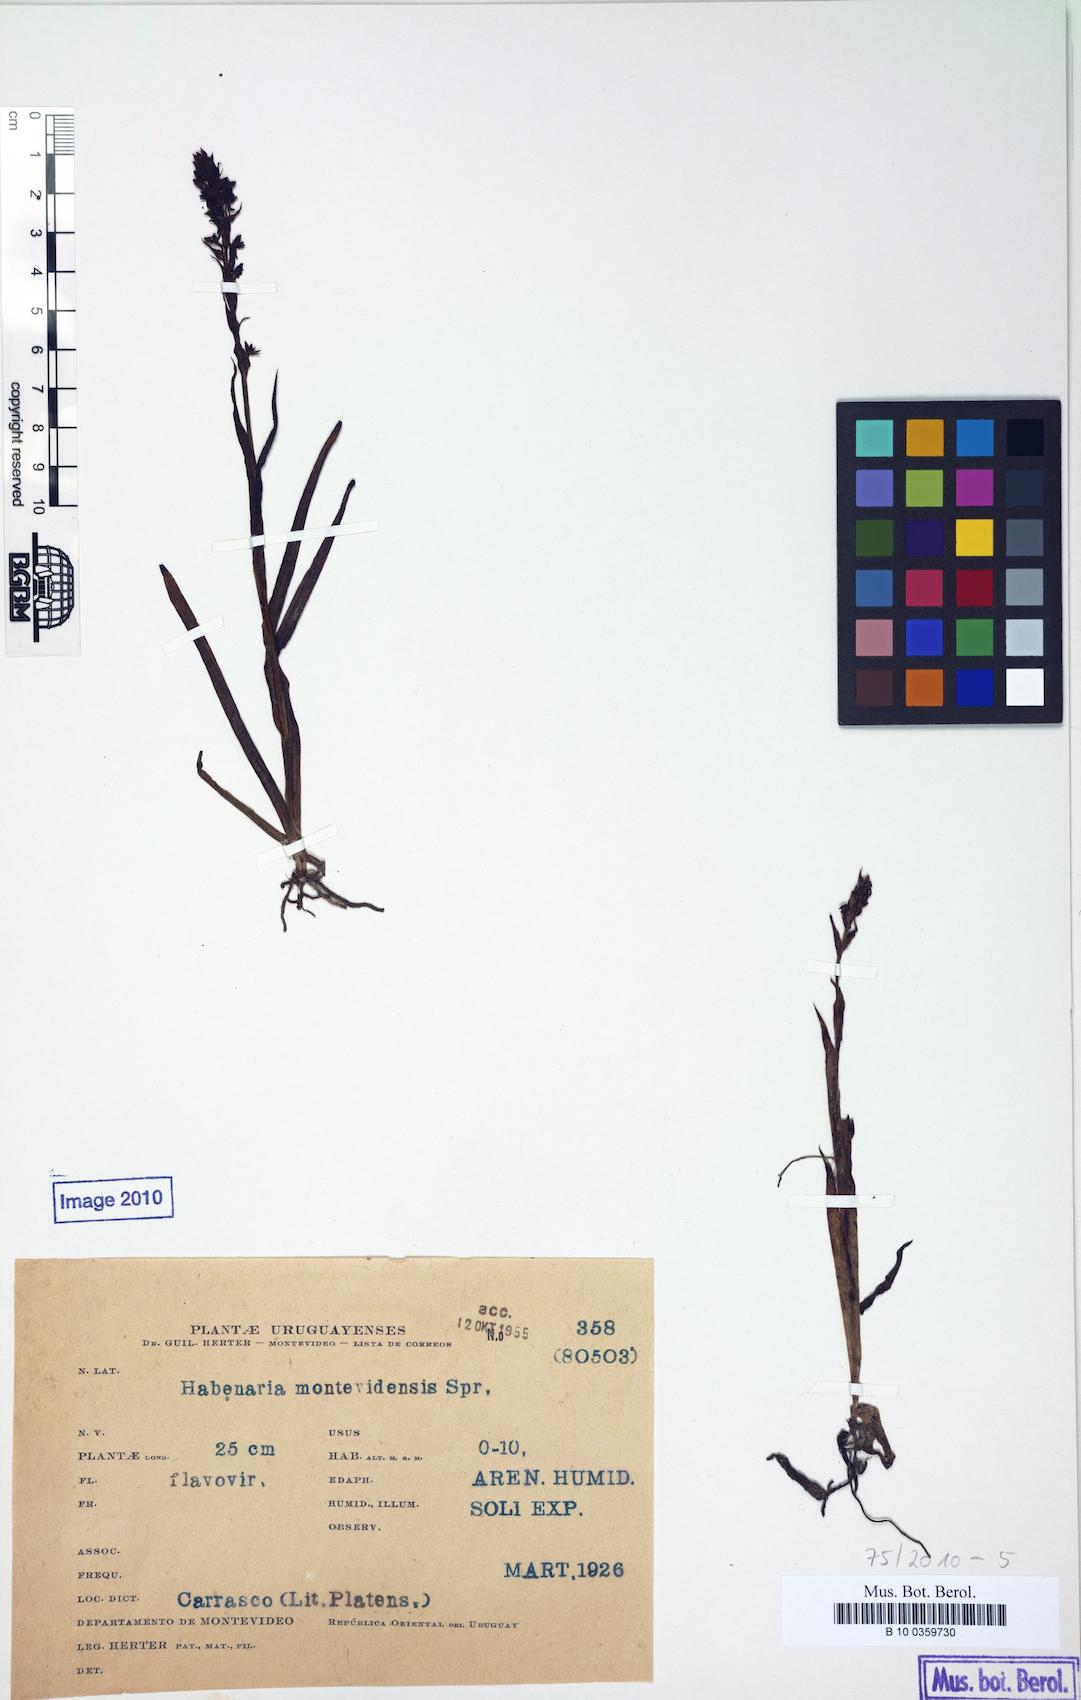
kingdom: Plantae
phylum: Tracheophyta
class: Liliopsida
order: Asparagales
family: Orchidaceae
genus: Habenaria
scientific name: Habenaria parviflora
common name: Small flowered habenaria
